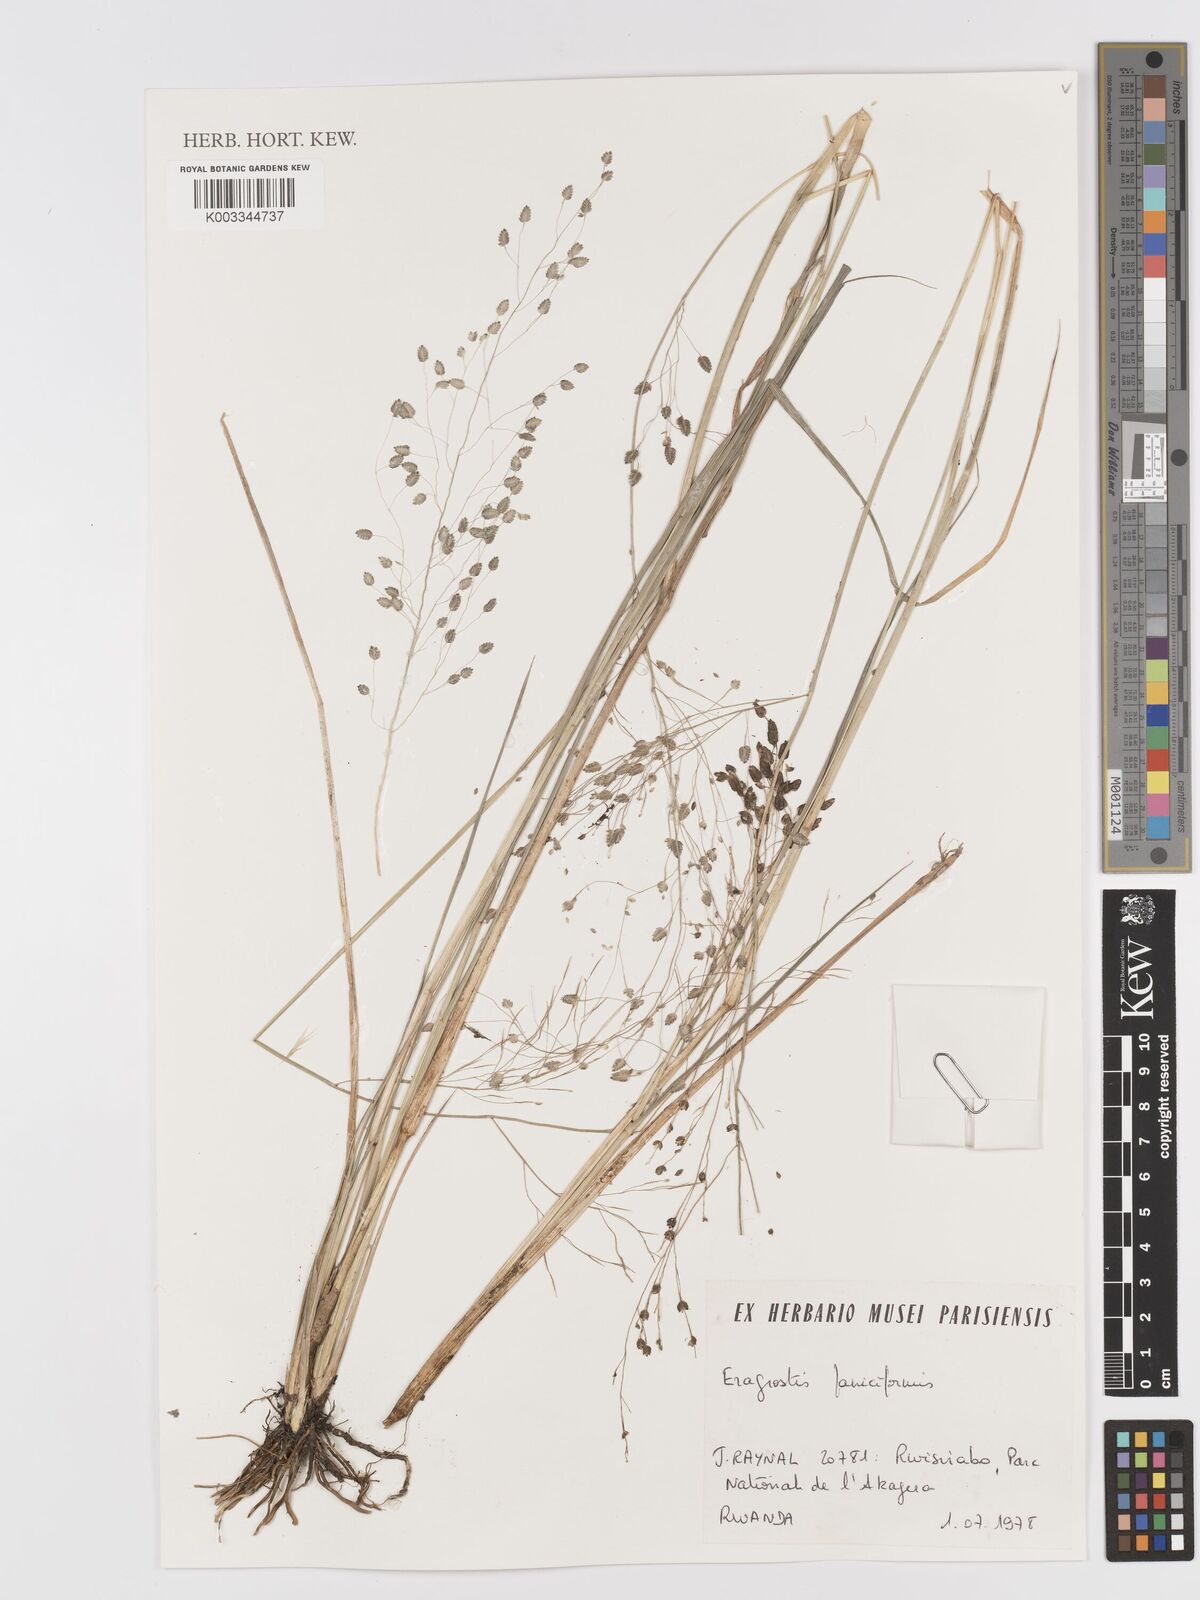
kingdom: Plantae
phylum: Tracheophyta
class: Liliopsida
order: Poales
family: Poaceae
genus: Eragrostis
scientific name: Eragrostis chalarothyrsos
